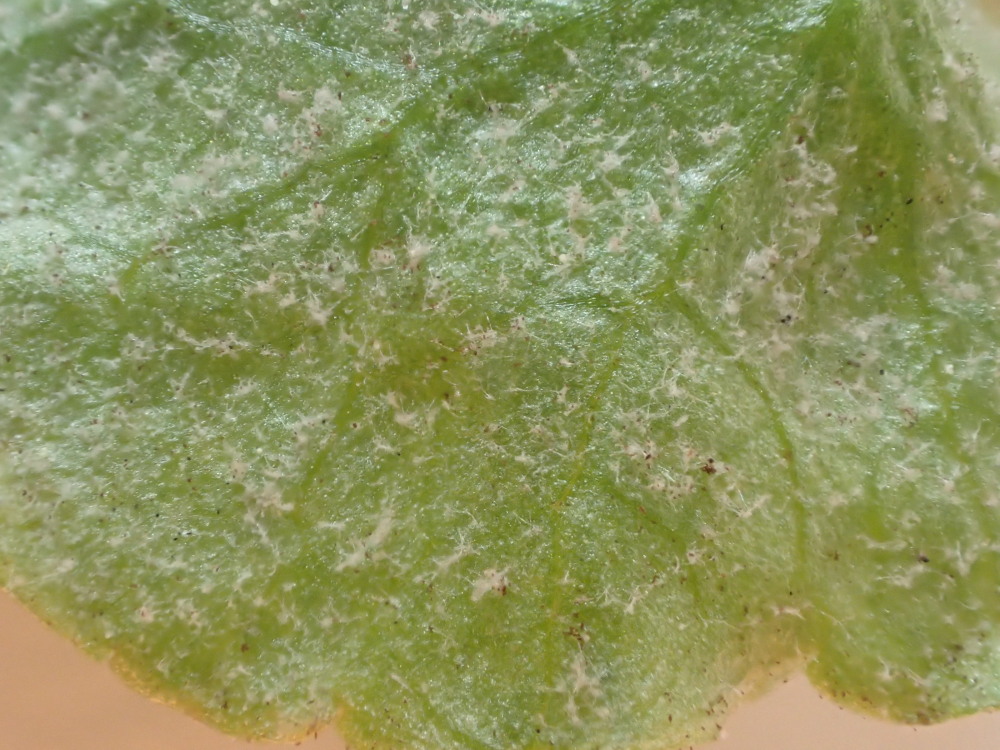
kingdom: Chromista
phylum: Oomycota
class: Peronosporea
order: Peronosporales
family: Peronosporaceae
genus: Peronospora
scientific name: Peronospora ficariae
